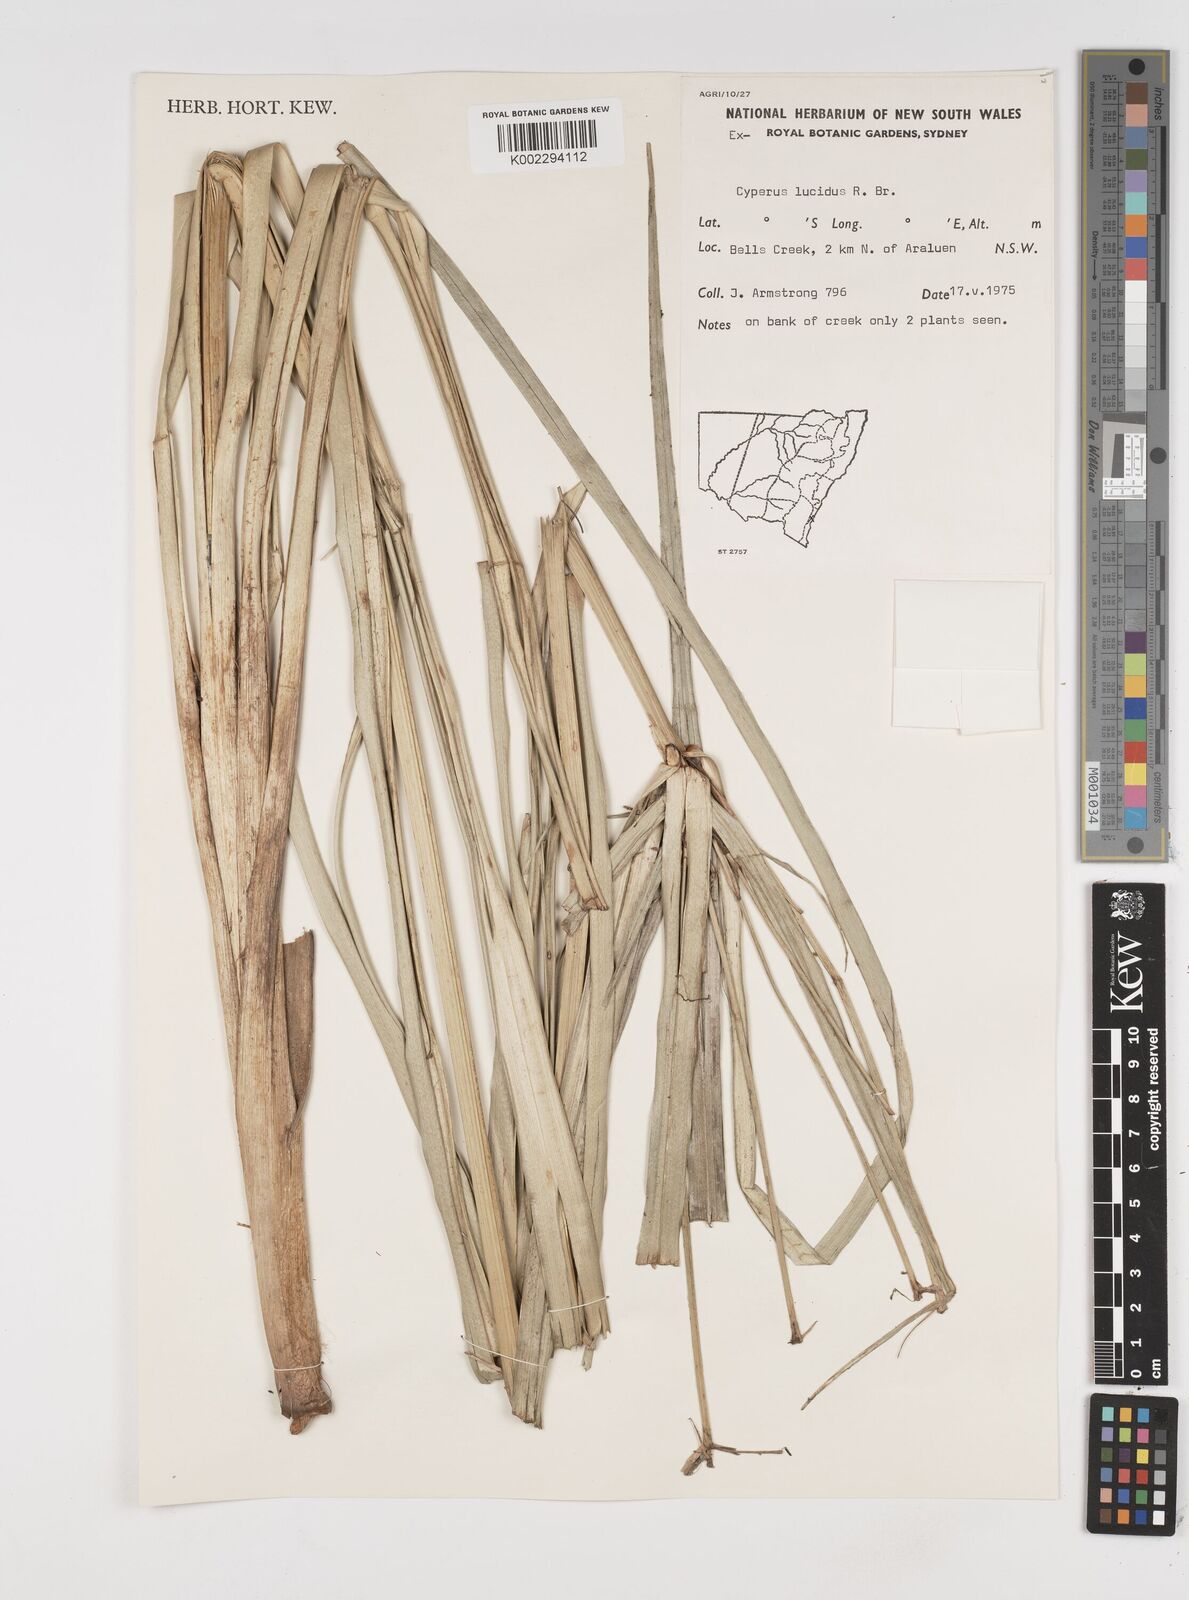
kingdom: Plantae
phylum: Tracheophyta
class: Liliopsida
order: Poales
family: Cyperaceae
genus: Cyperus
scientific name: Cyperus lucidus
